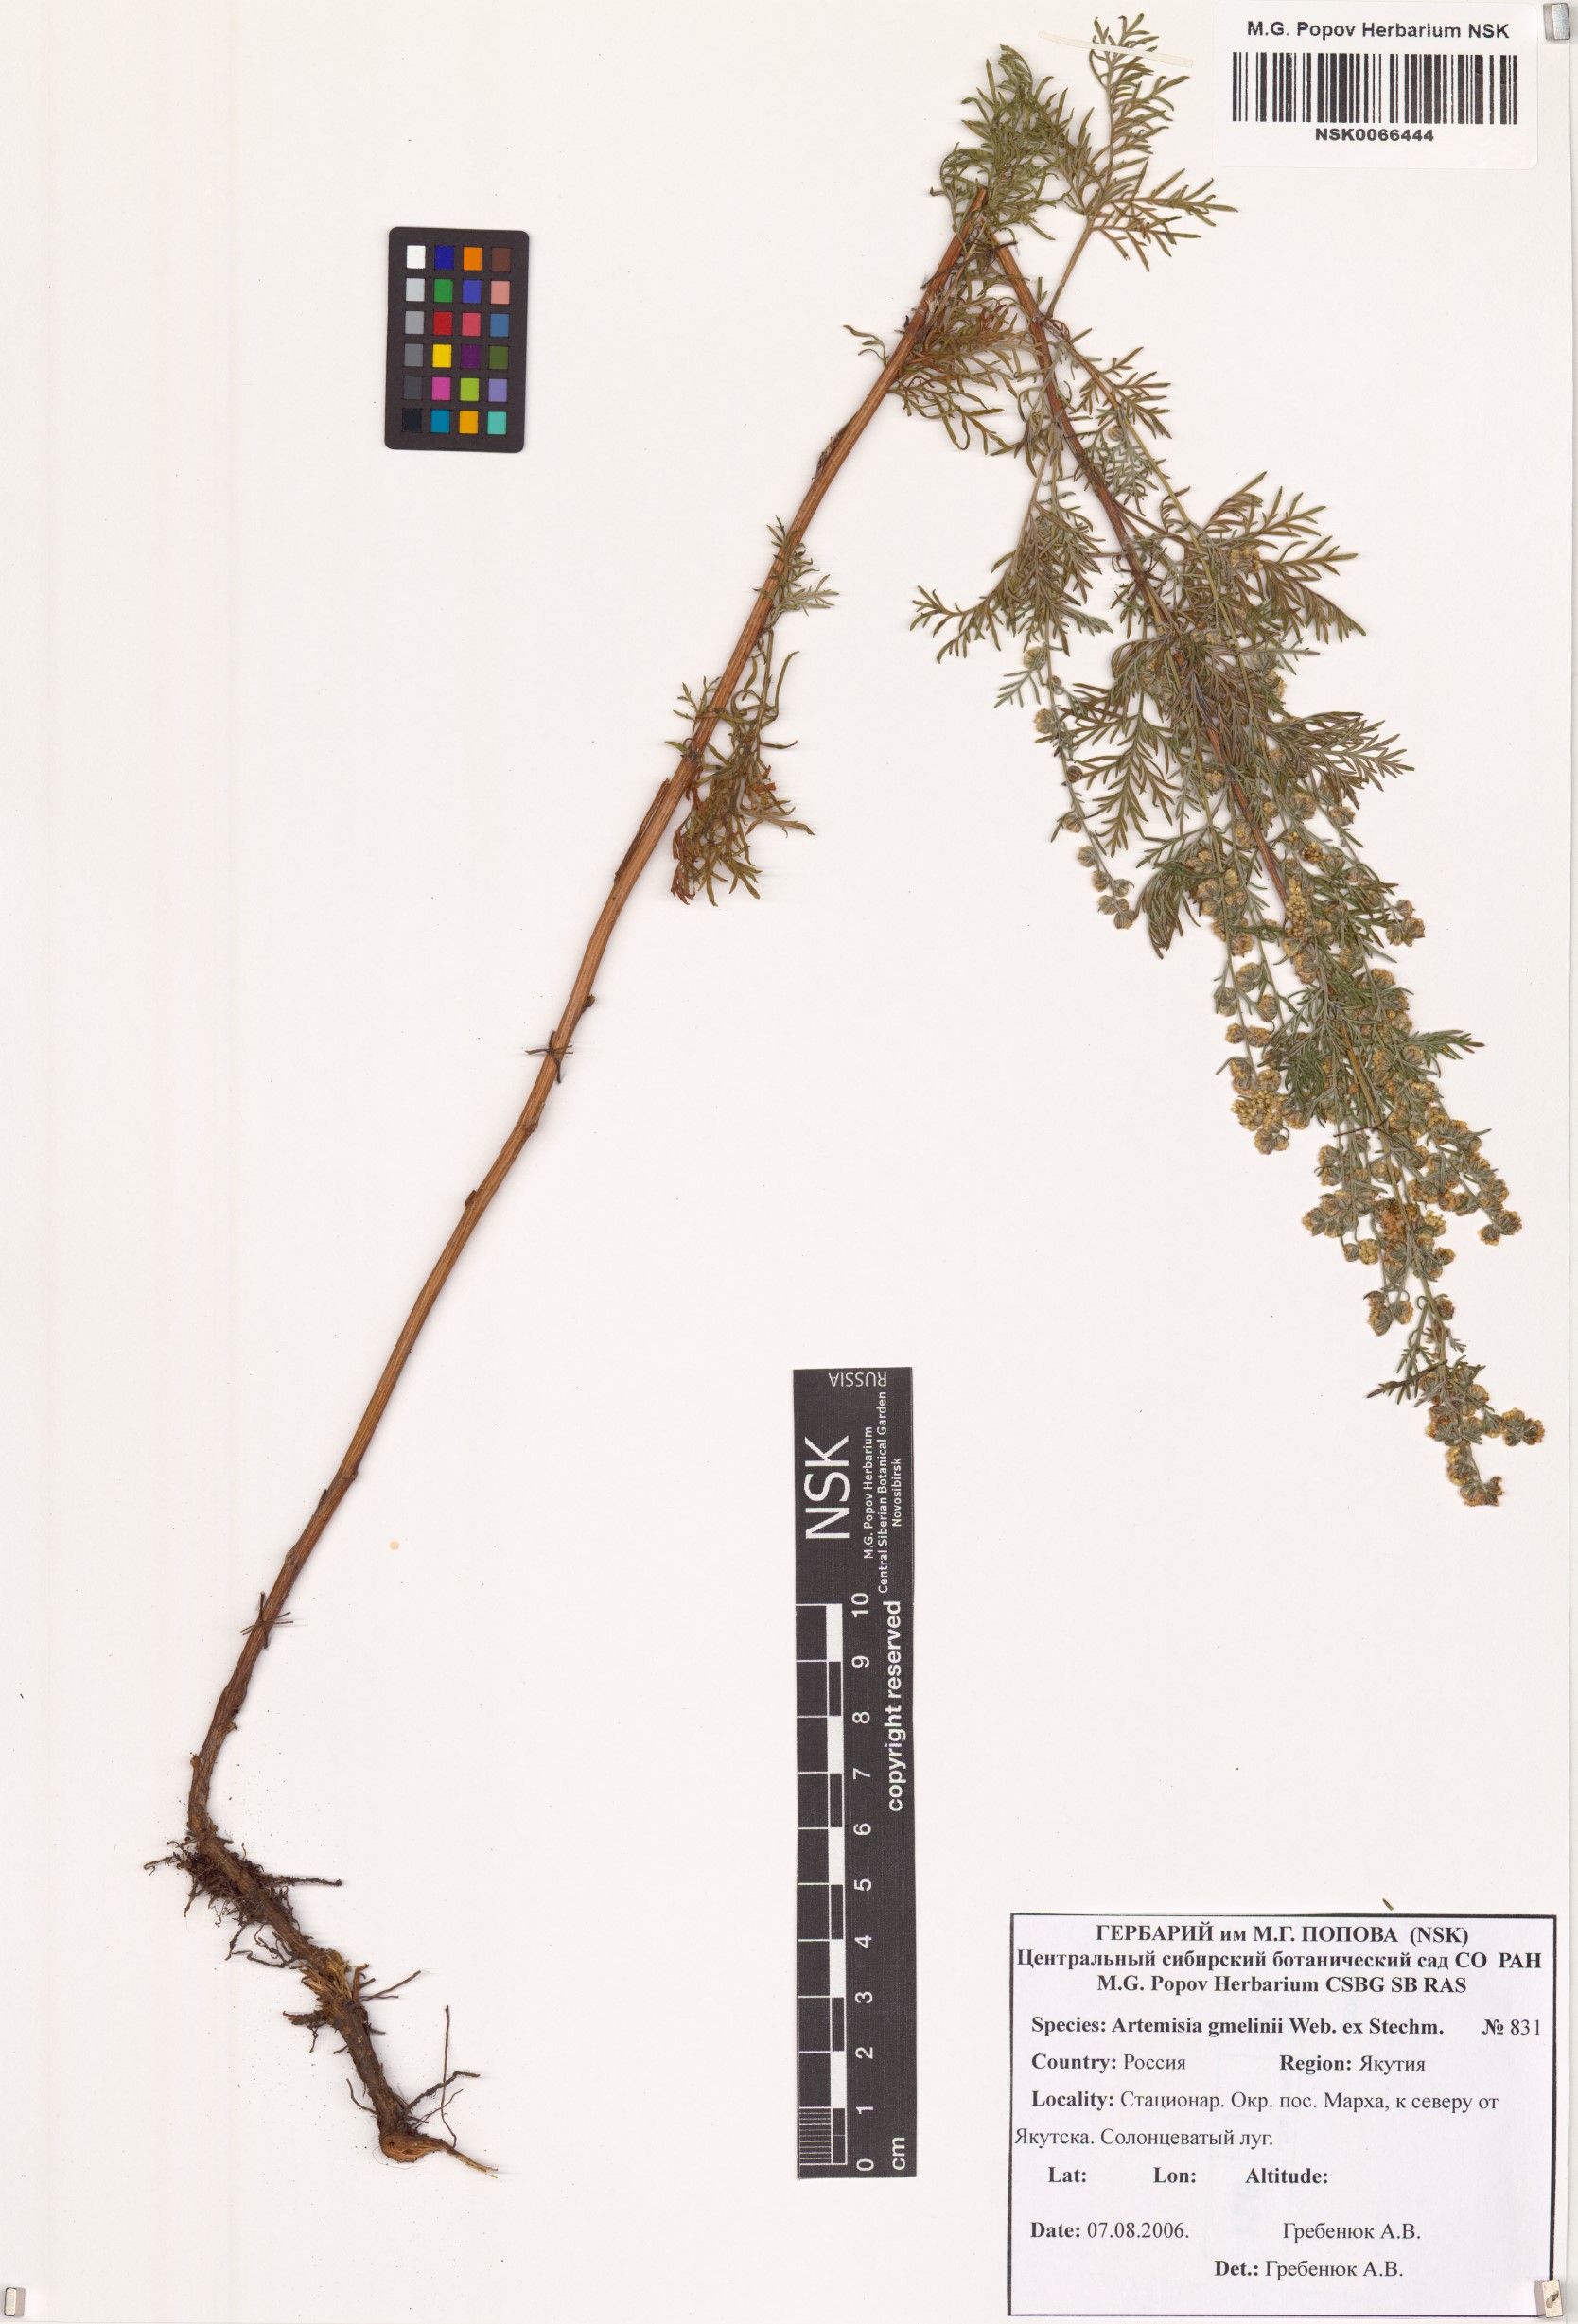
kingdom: Plantae
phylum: Tracheophyta
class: Magnoliopsida
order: Asterales
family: Asteraceae
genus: Artemisia
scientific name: Artemisia gmelinii
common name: Gmelin's wormwood
